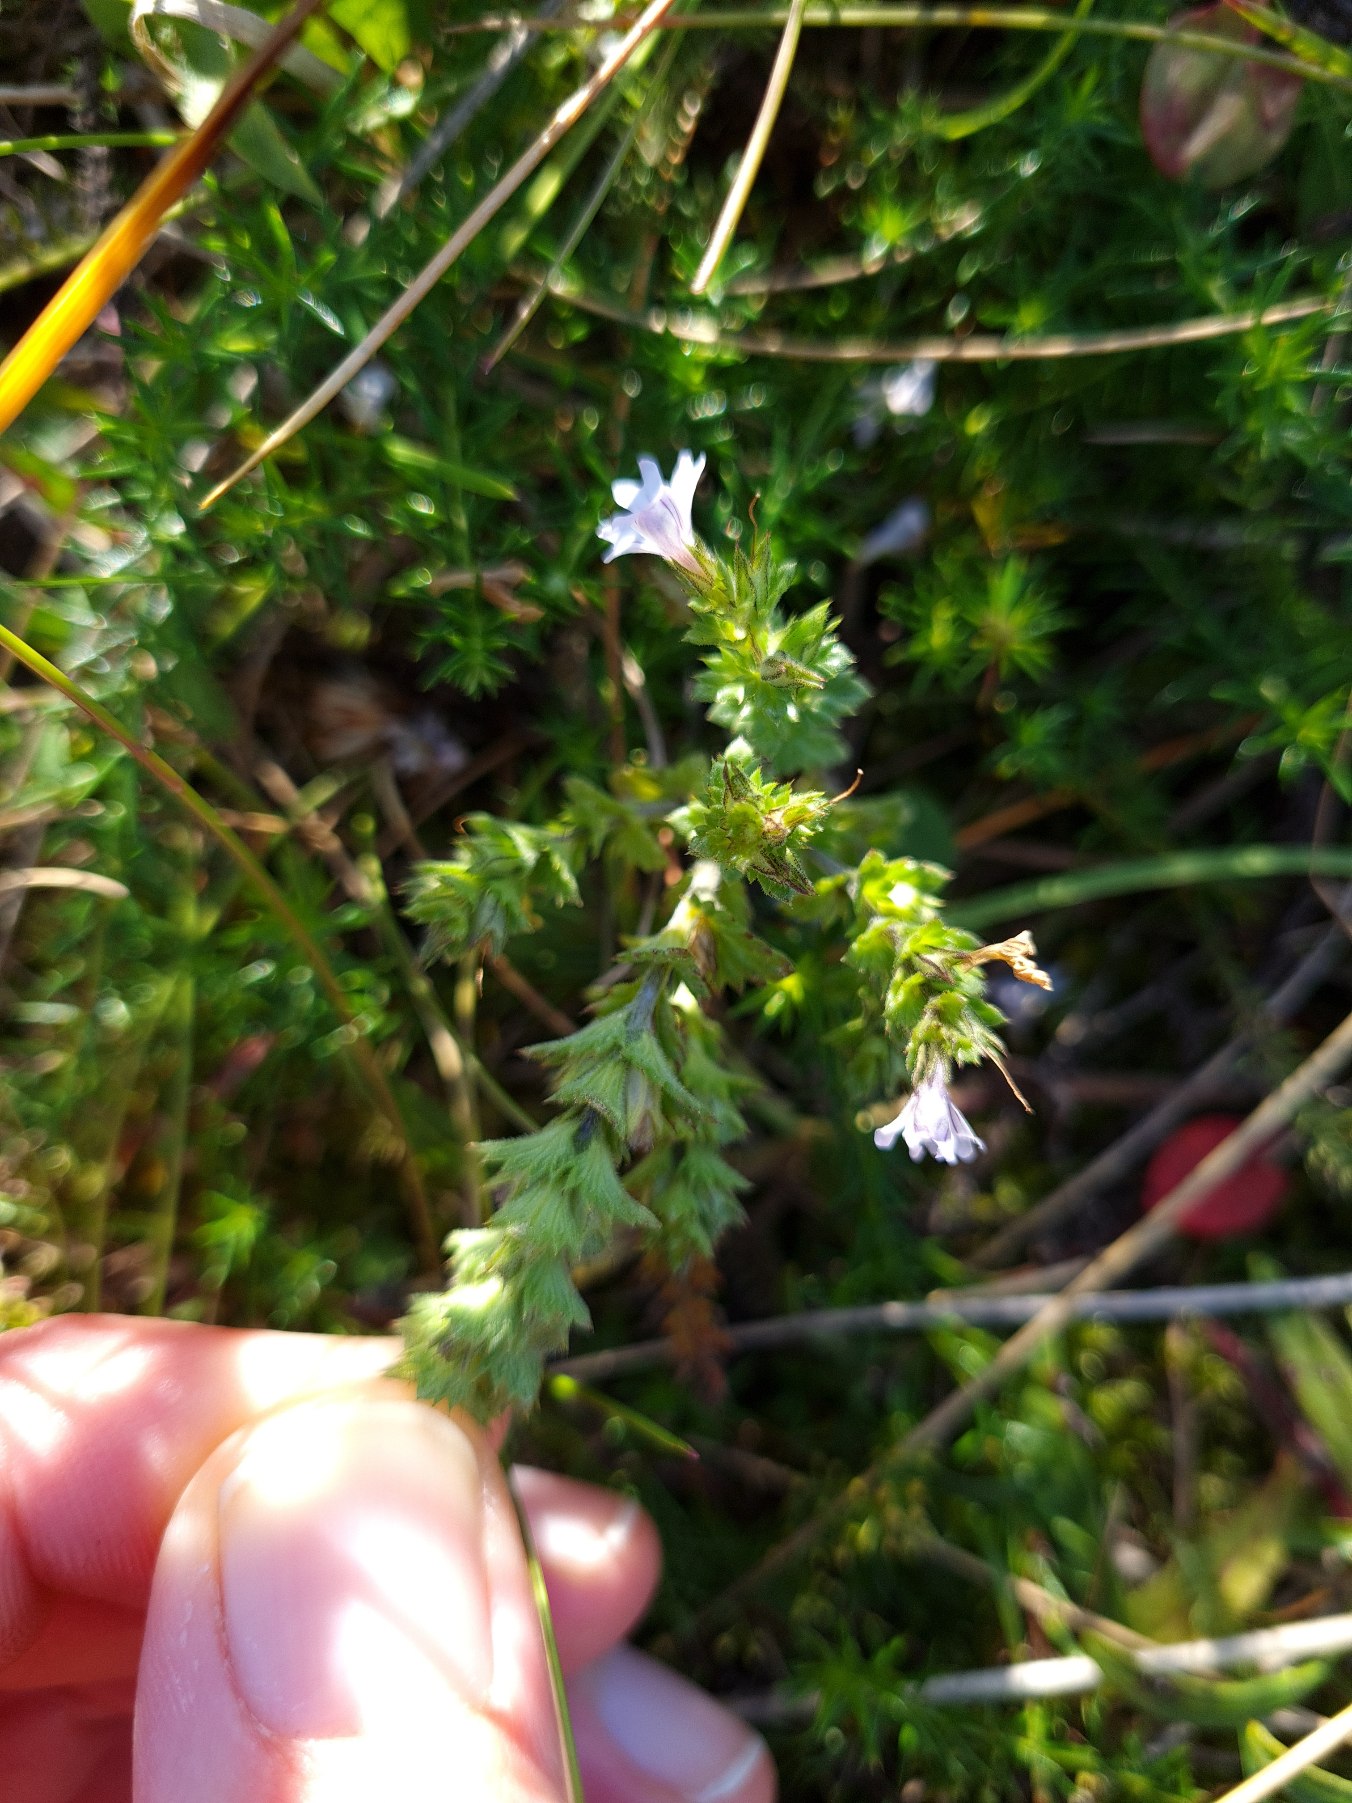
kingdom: Plantae
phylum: Tracheophyta
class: Magnoliopsida
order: Lamiales
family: Orobanchaceae
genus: Euphrasia
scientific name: Euphrasia stricta
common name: Spids øjentrøst
